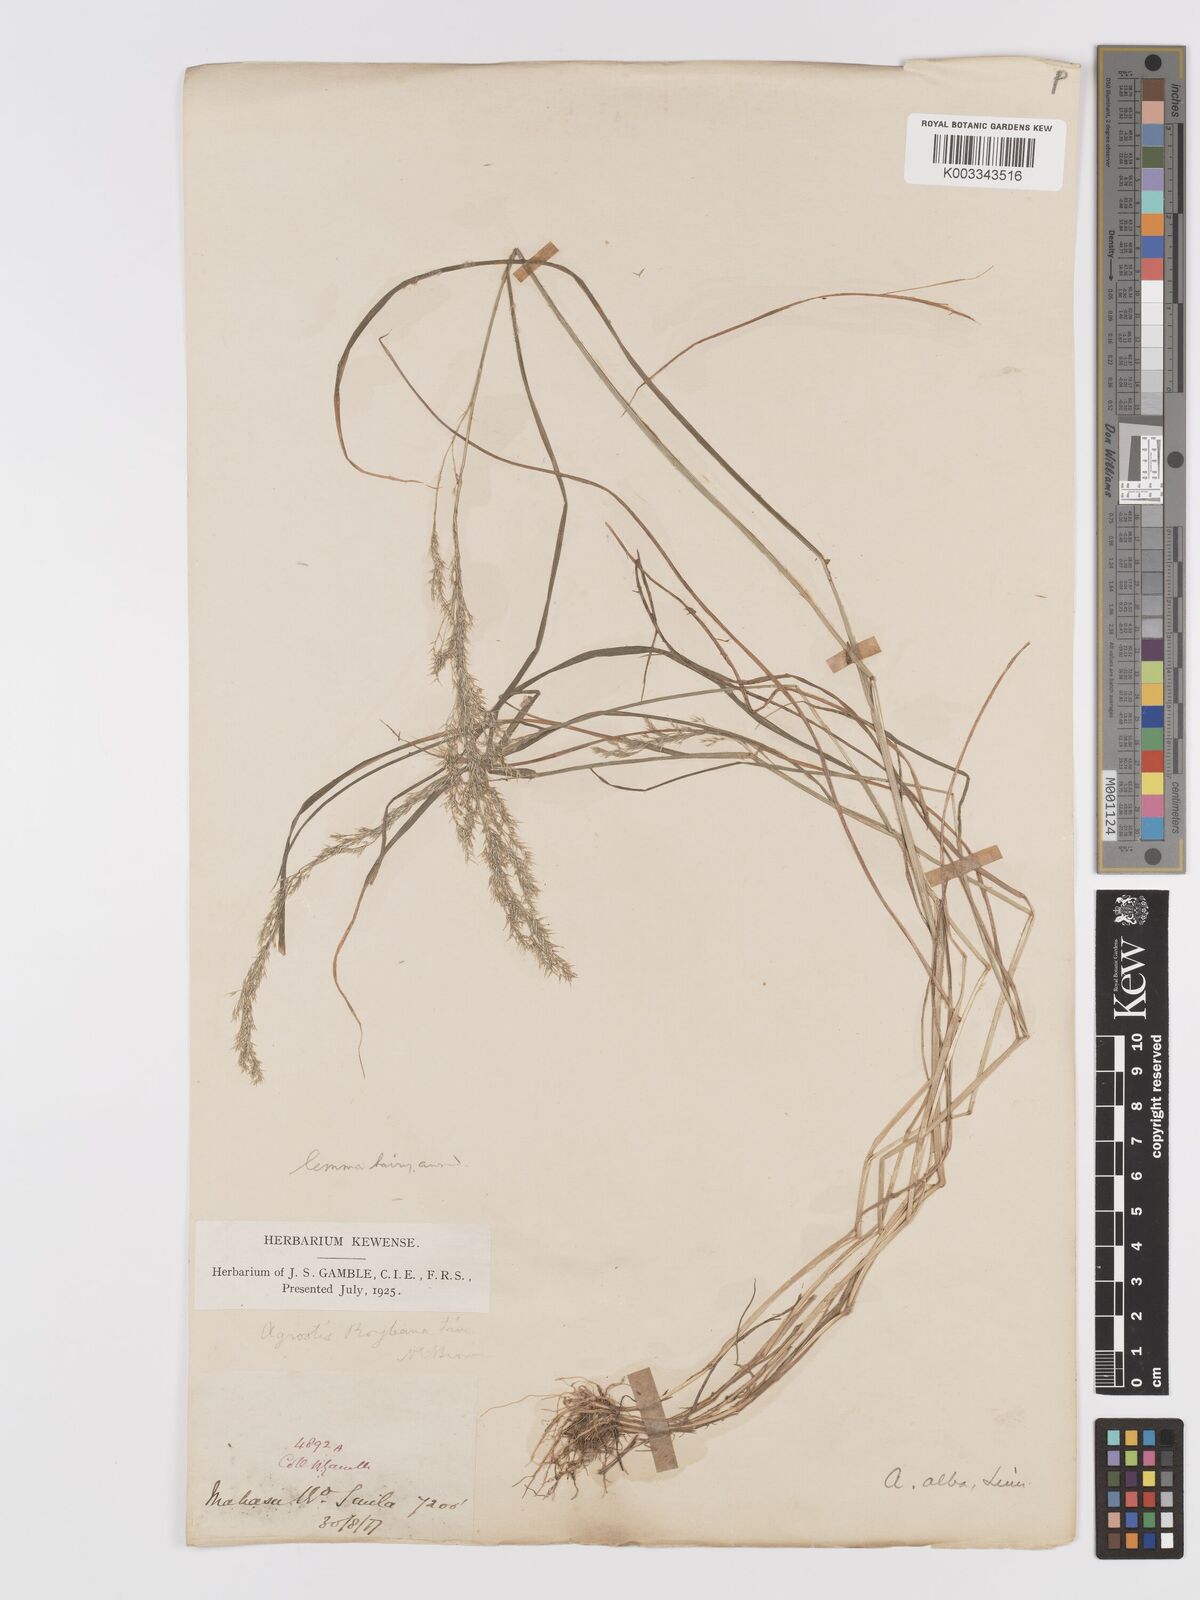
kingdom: Plantae
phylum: Tracheophyta
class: Liliopsida
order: Poales
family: Poaceae
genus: Agrostis
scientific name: Agrostis gigantea
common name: Black bent
